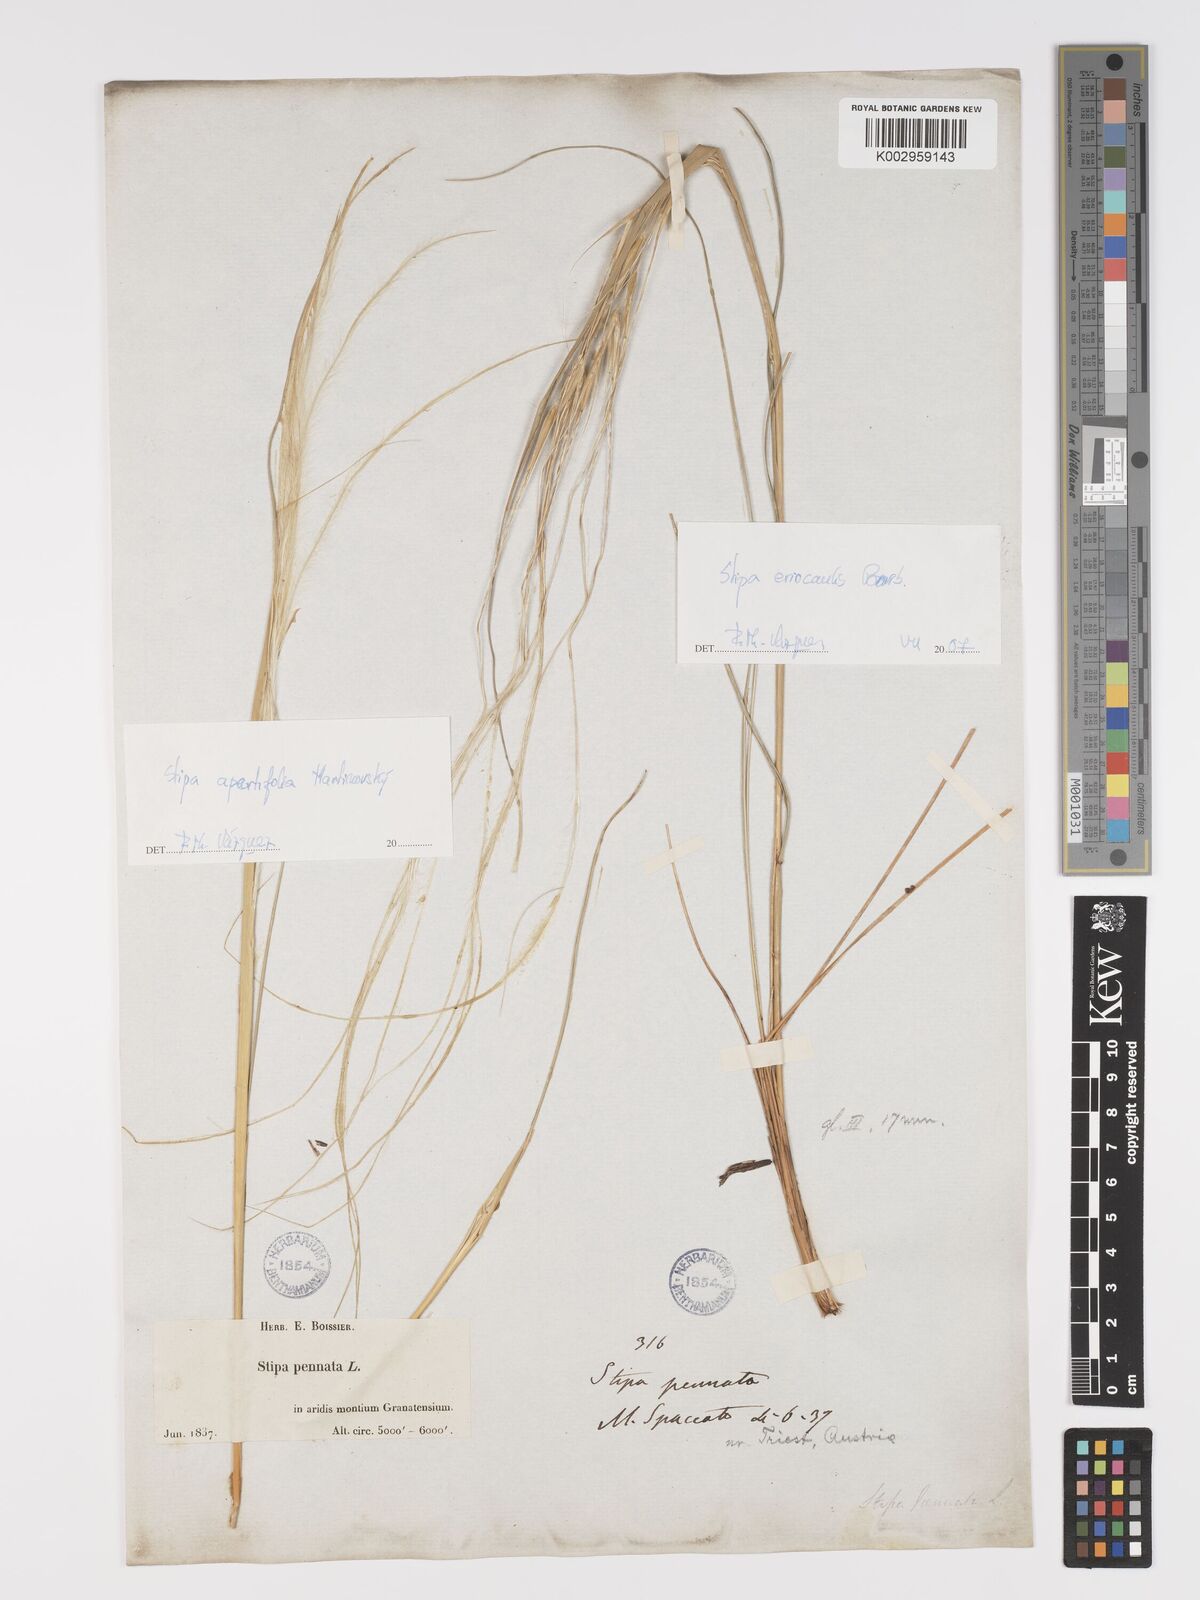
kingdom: Plantae
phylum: Tracheophyta
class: Liliopsida
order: Poales
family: Poaceae
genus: Stipa
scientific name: Stipa pennata
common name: European feather grass
